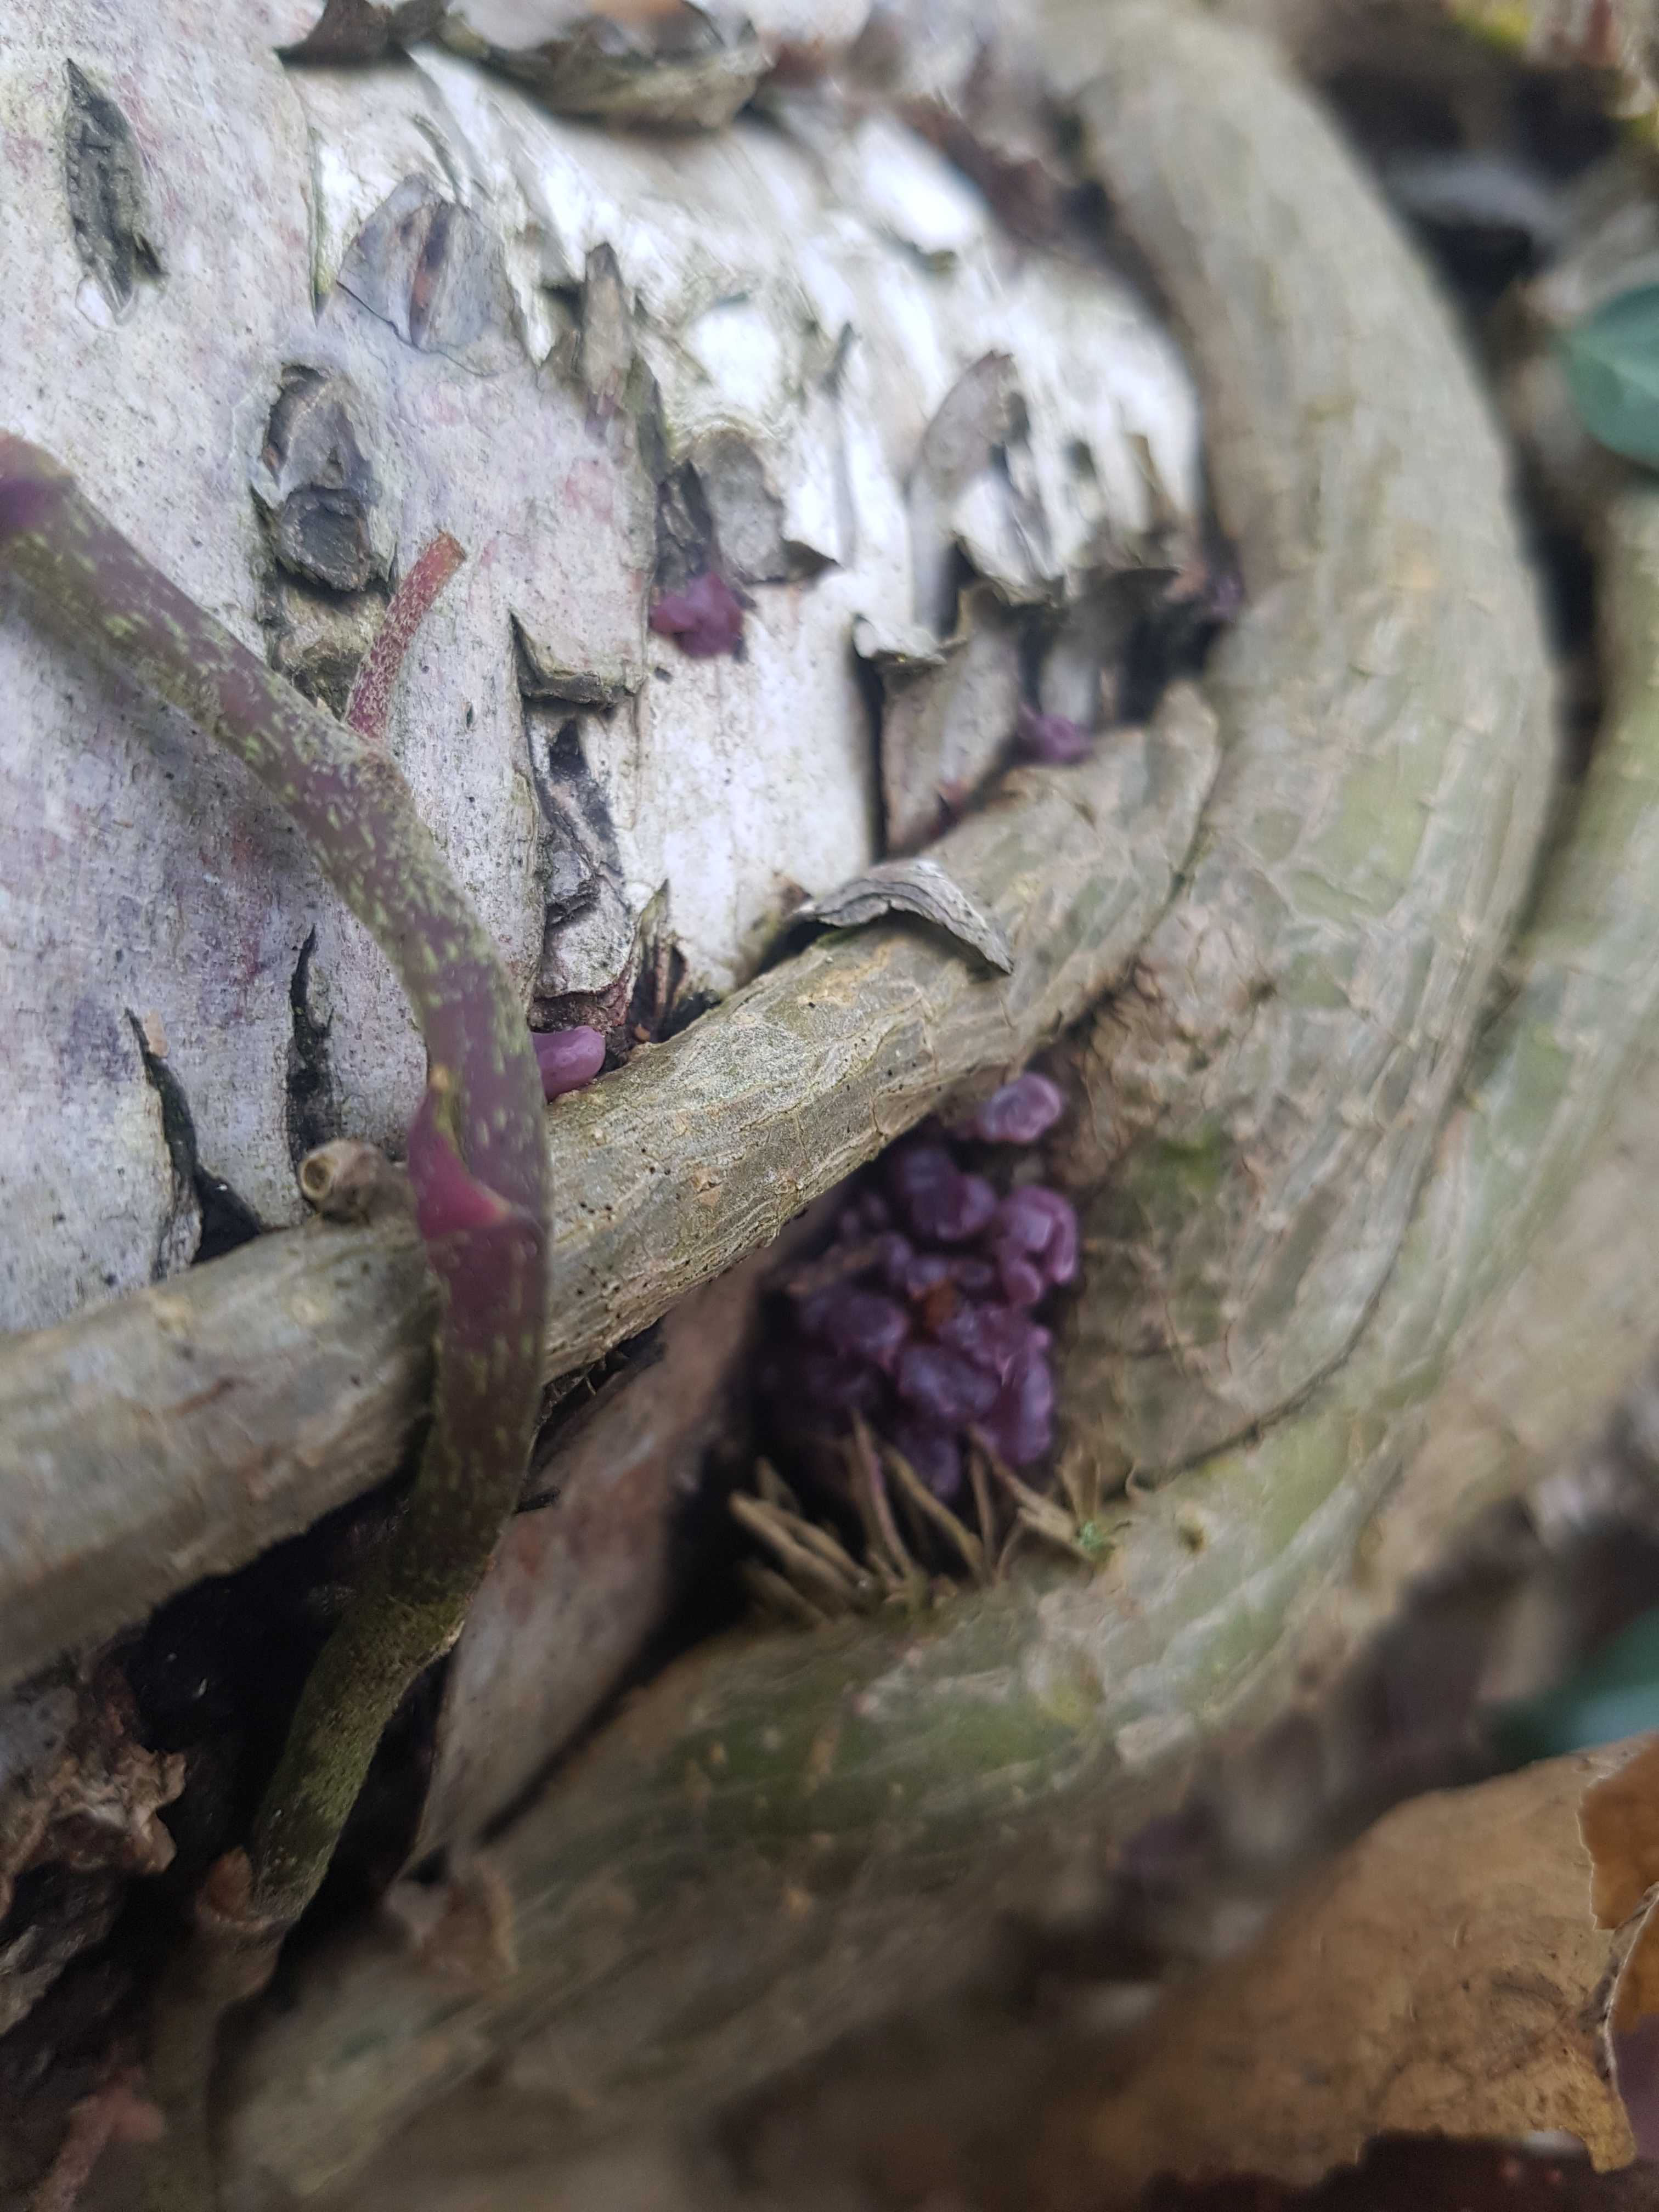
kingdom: Fungi
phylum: Ascomycota
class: Leotiomycetes
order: Helotiales
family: Gelatinodiscaceae
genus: Ascocoryne
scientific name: Ascocoryne sarcoides
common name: rødlilla sejskive
